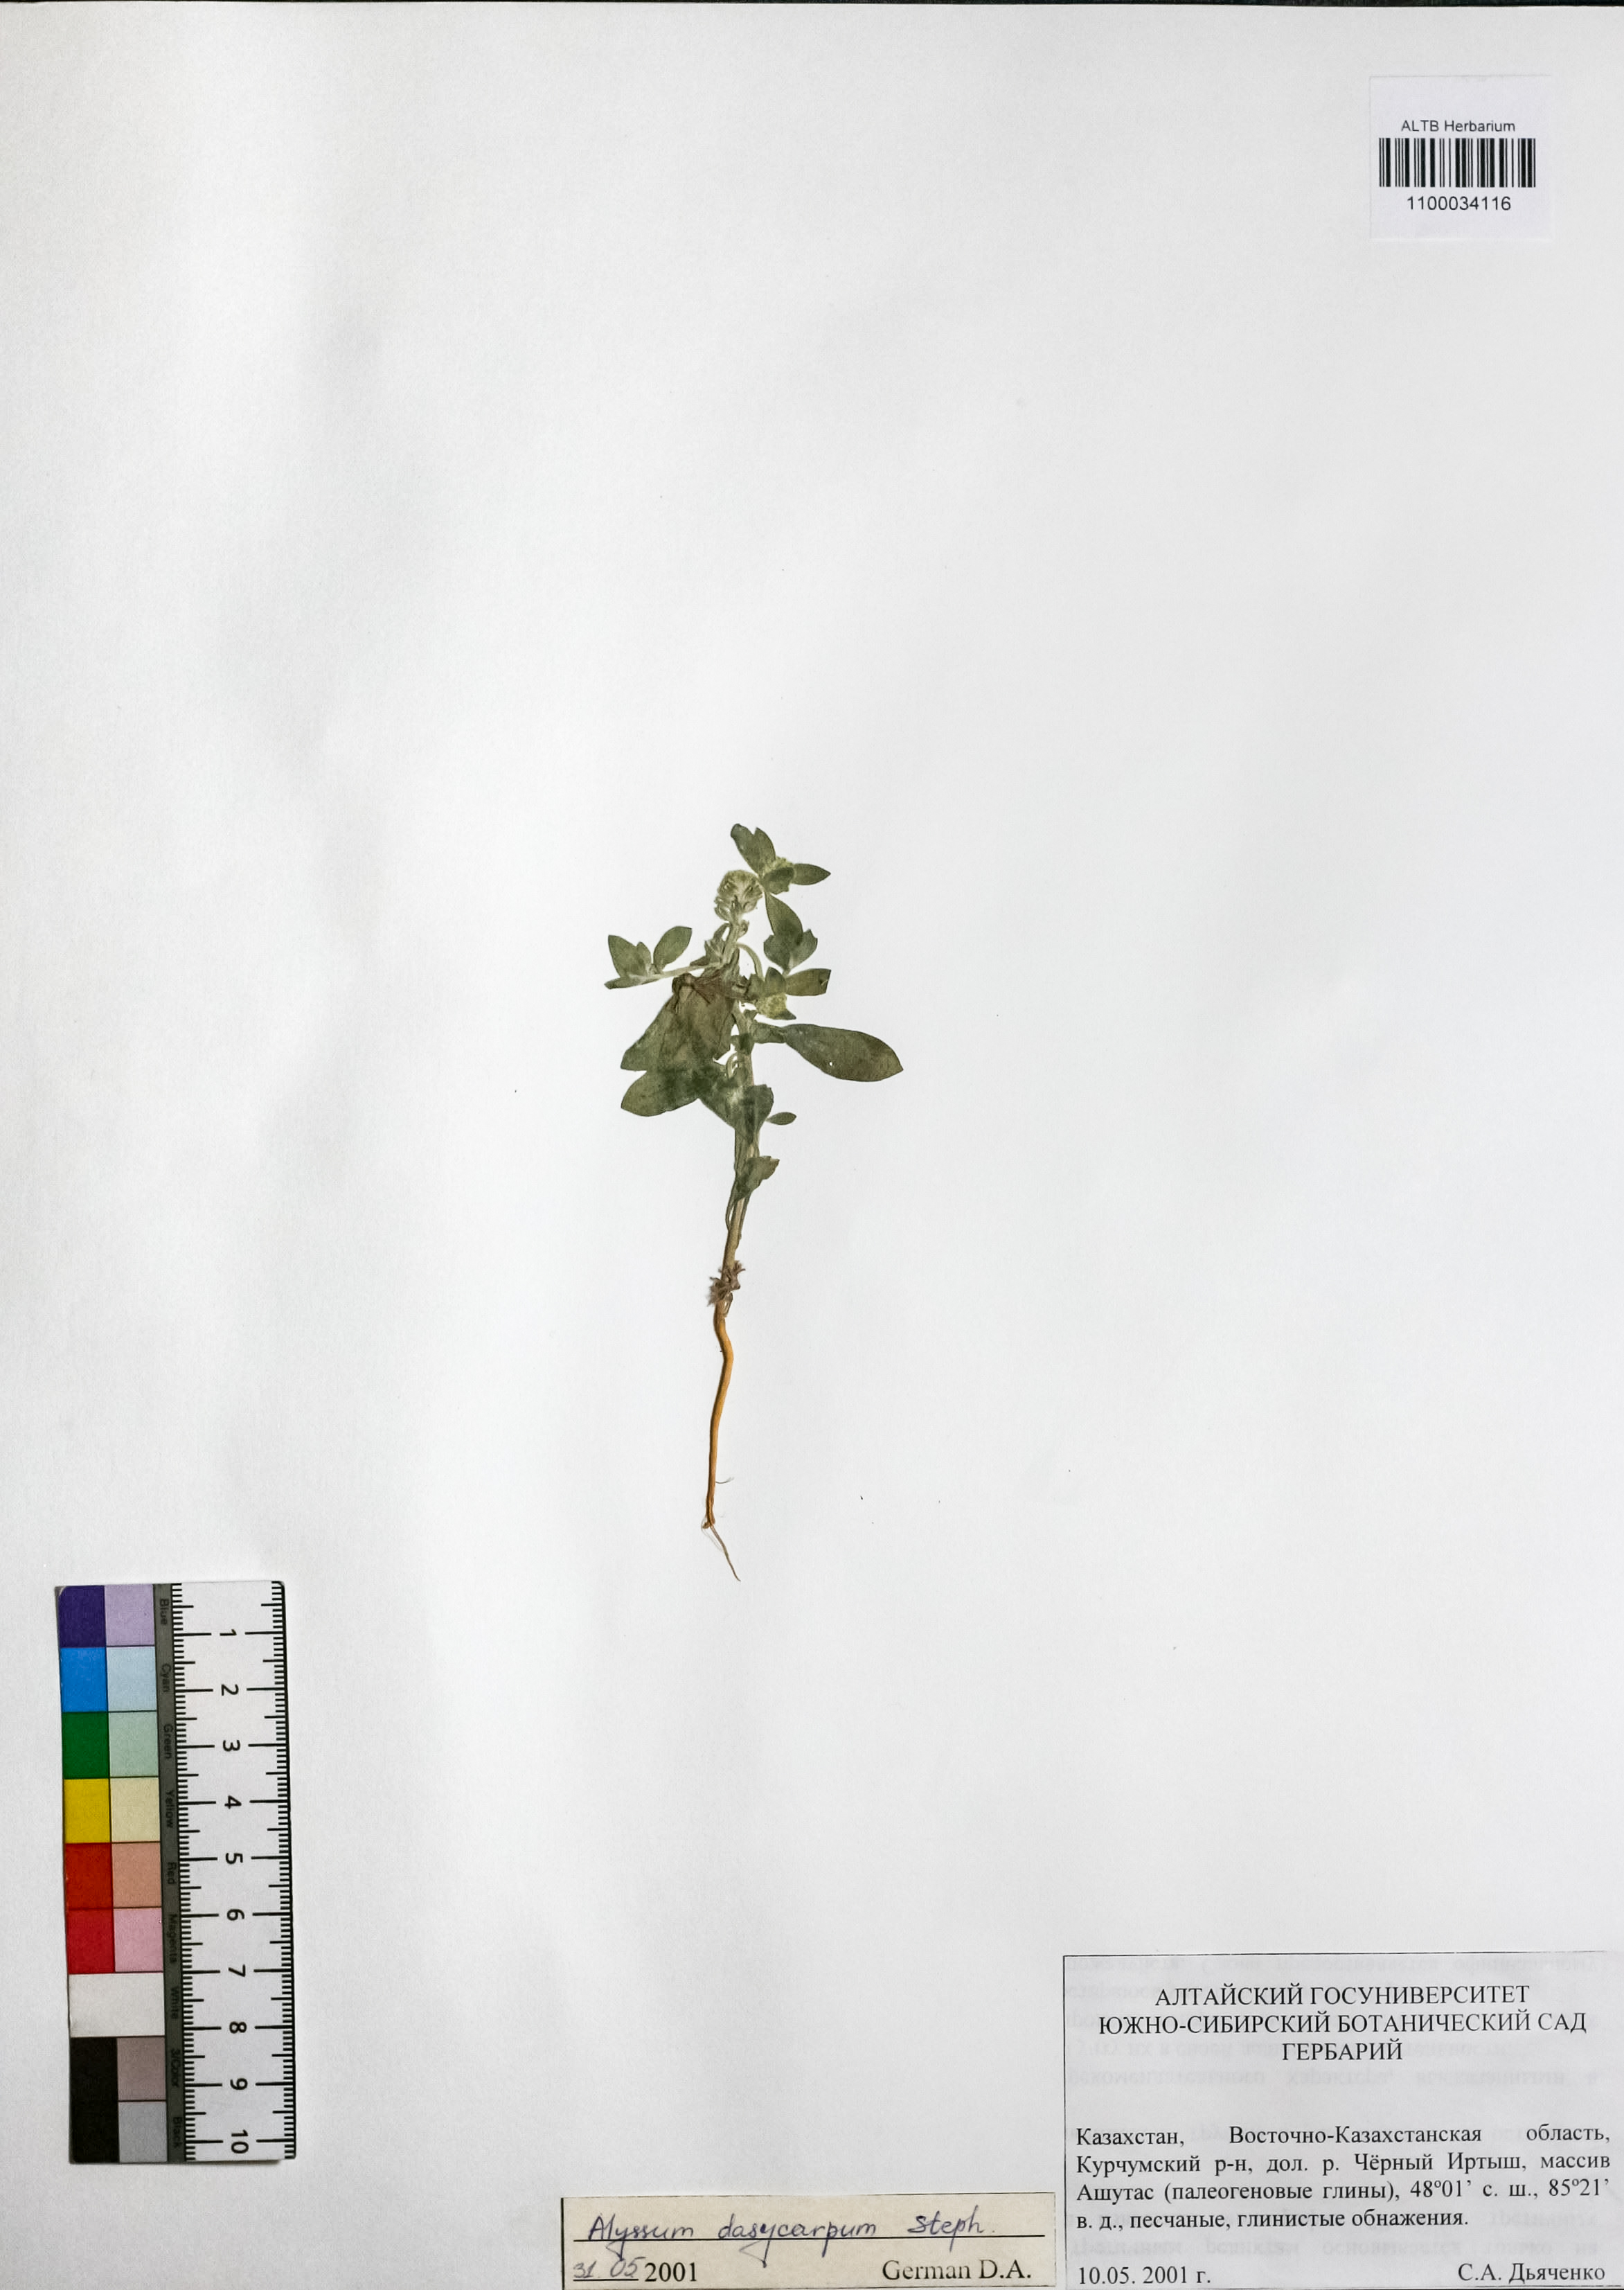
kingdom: Plantae
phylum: Tracheophyta
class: Magnoliopsida
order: Brassicales
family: Brassicaceae
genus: Alyssum
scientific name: Alyssum dasycarpum
